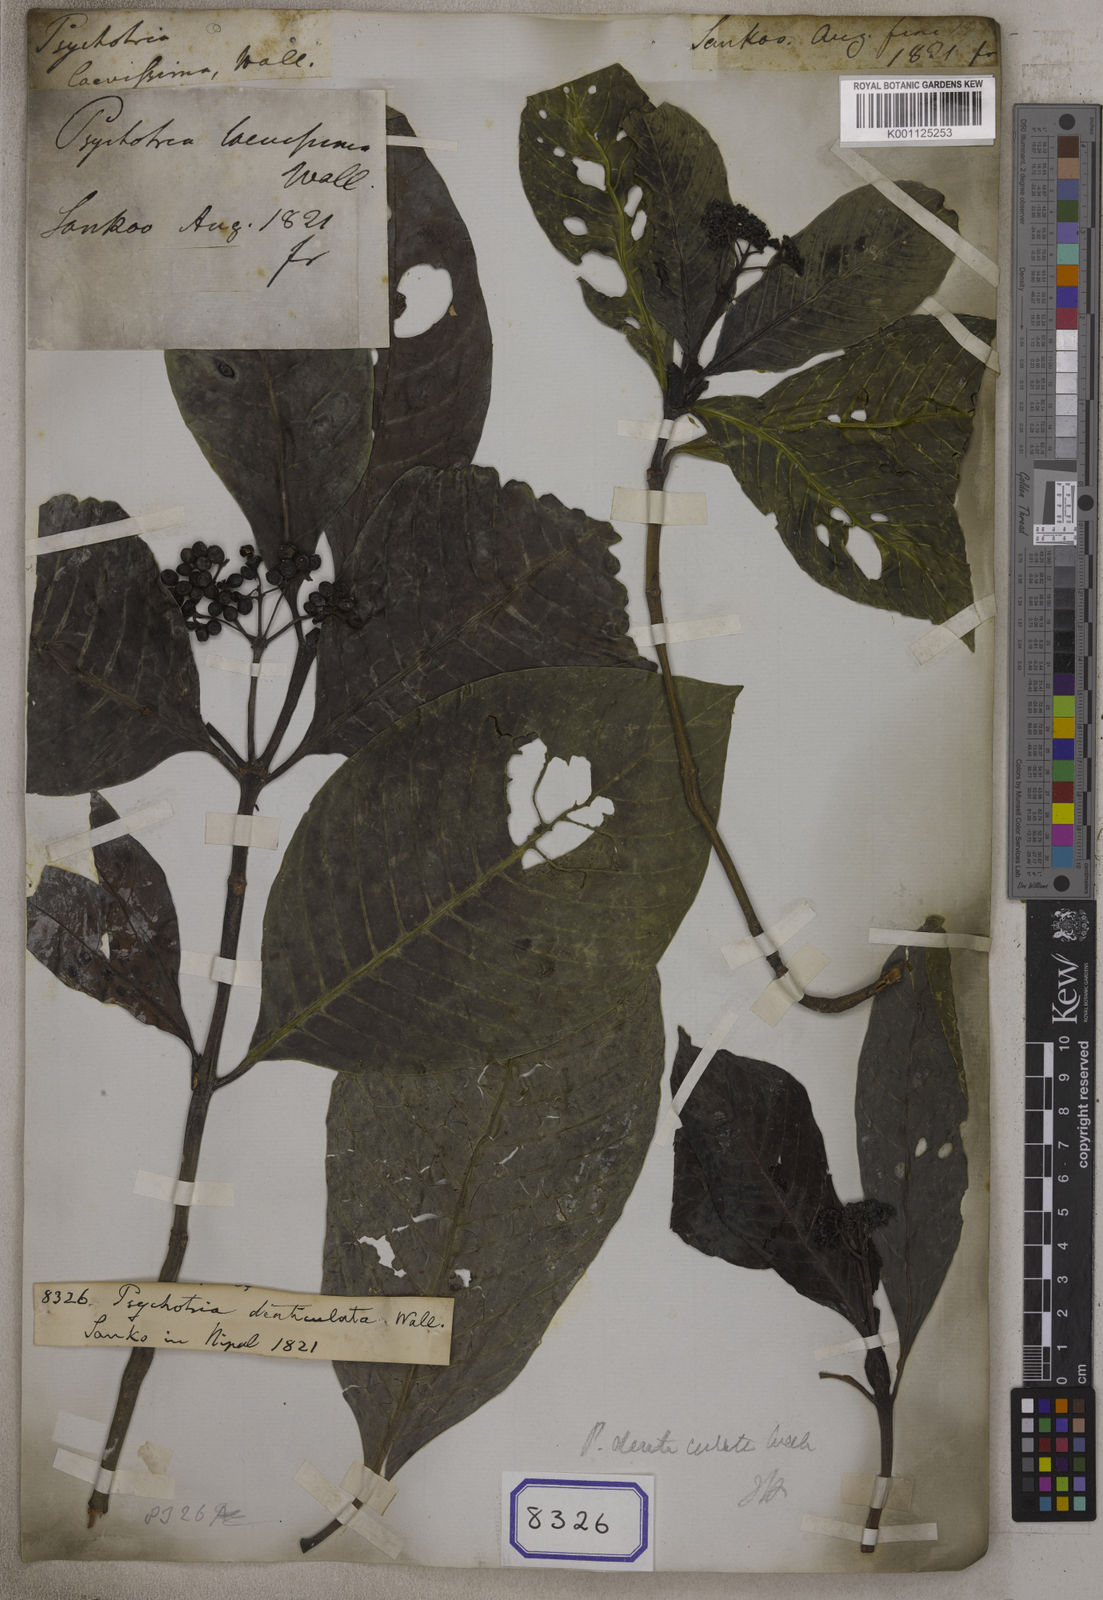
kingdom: Plantae
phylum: Tracheophyta
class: Magnoliopsida
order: Gentianales
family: Rubiaceae
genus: Psychotria
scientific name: Psychotria denticulata
